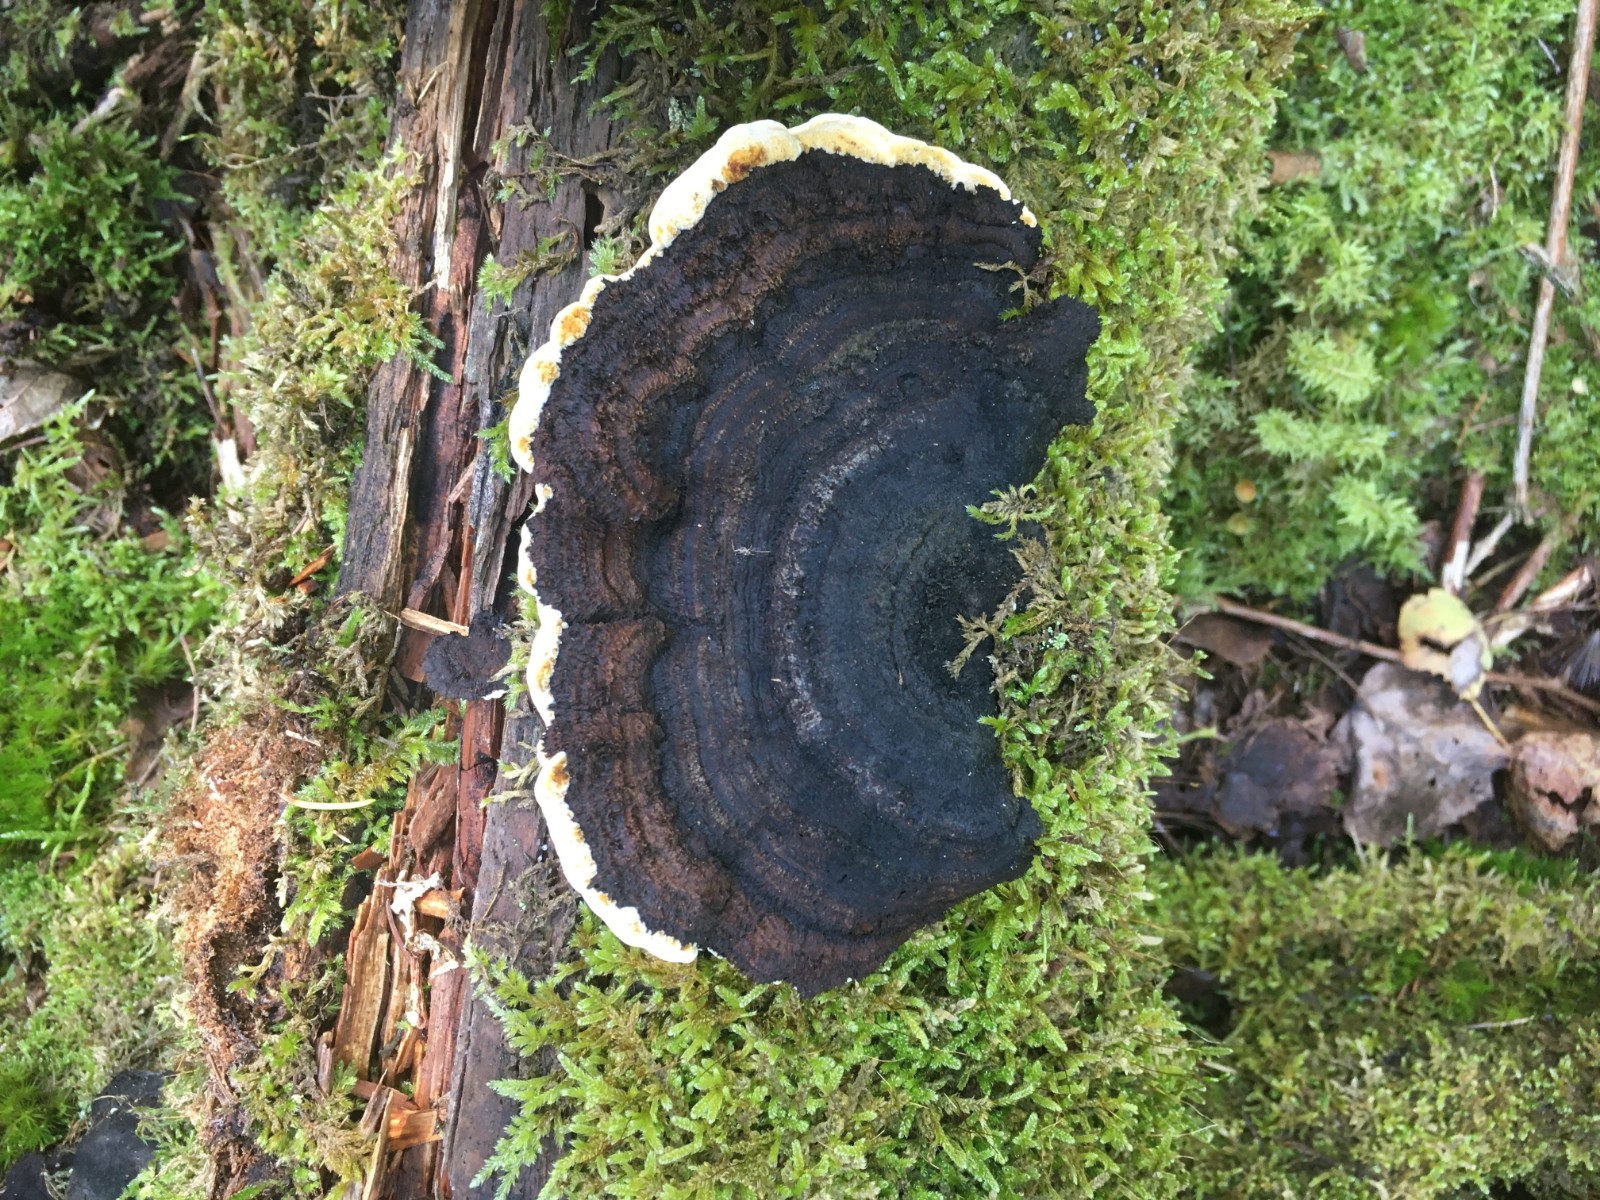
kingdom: Fungi
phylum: Basidiomycota
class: Agaricomycetes
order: Gloeophyllales
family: Gloeophyllaceae
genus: Gloeophyllum
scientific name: Gloeophyllum sepiarium
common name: fyrre-korkhat
